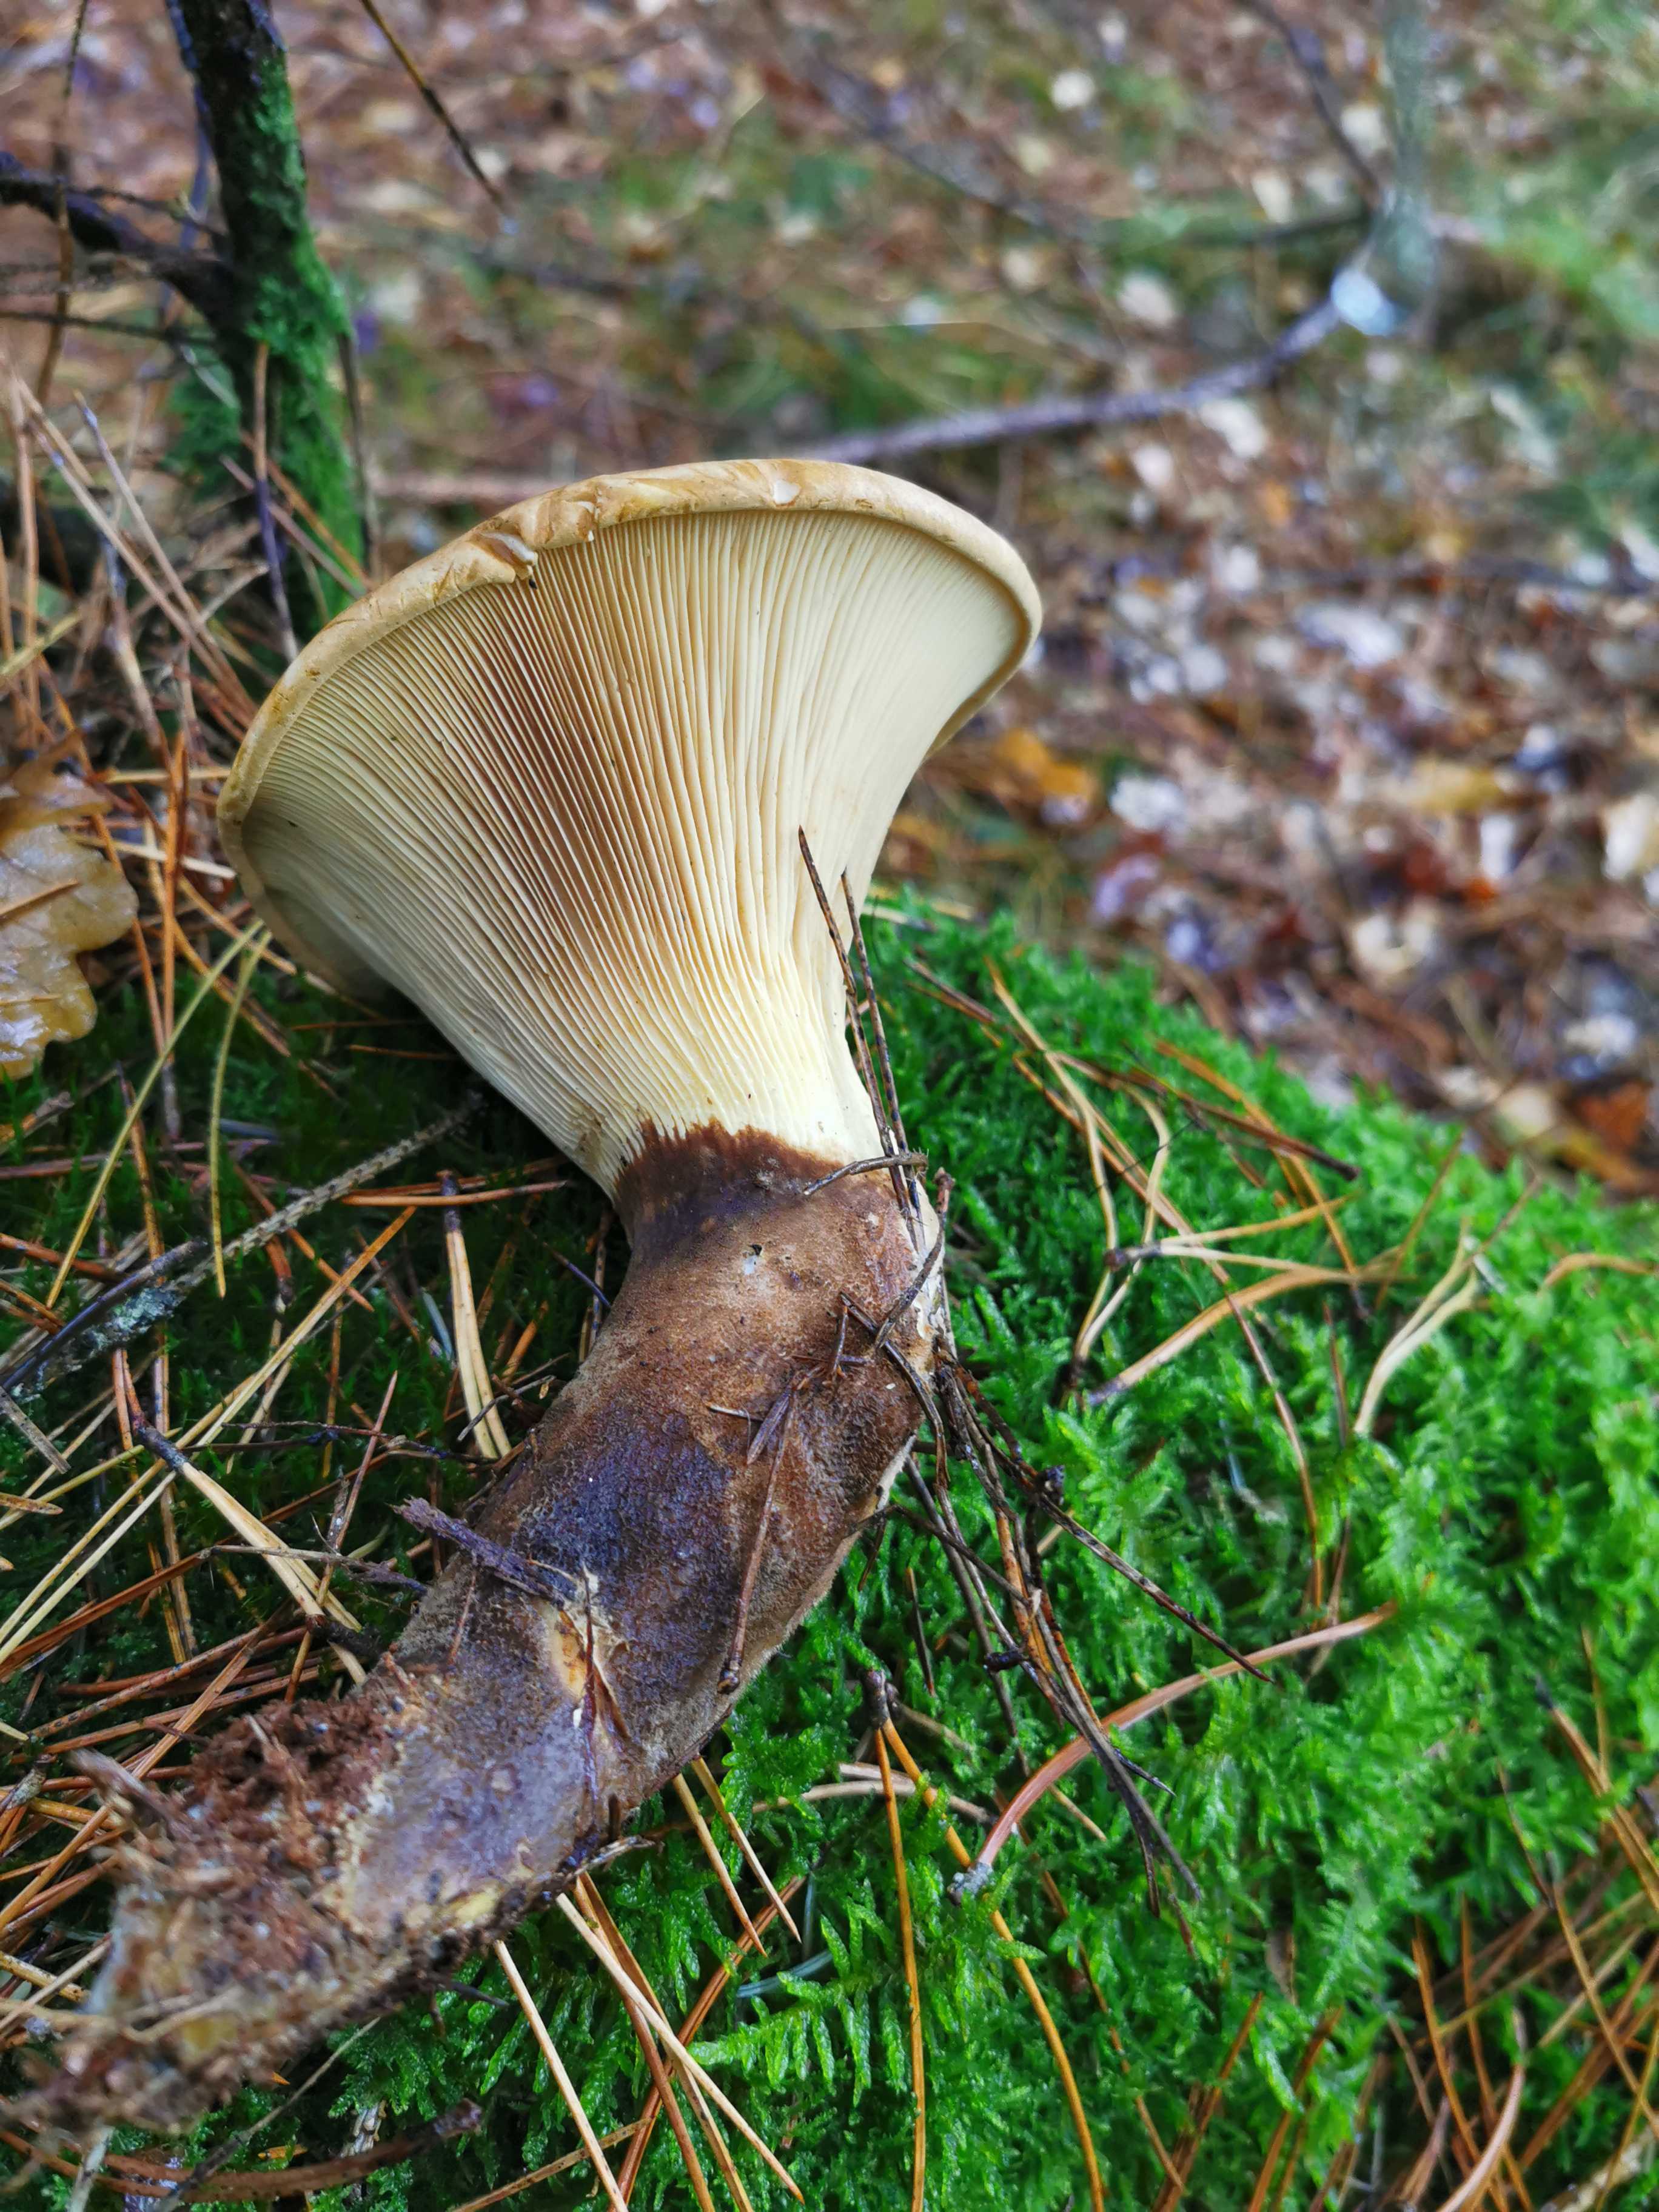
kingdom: Fungi
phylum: Basidiomycota
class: Agaricomycetes
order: Boletales
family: Tapinellaceae
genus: Tapinella
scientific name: Tapinella atrotomentosa
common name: sortfiltet viftesvamp
